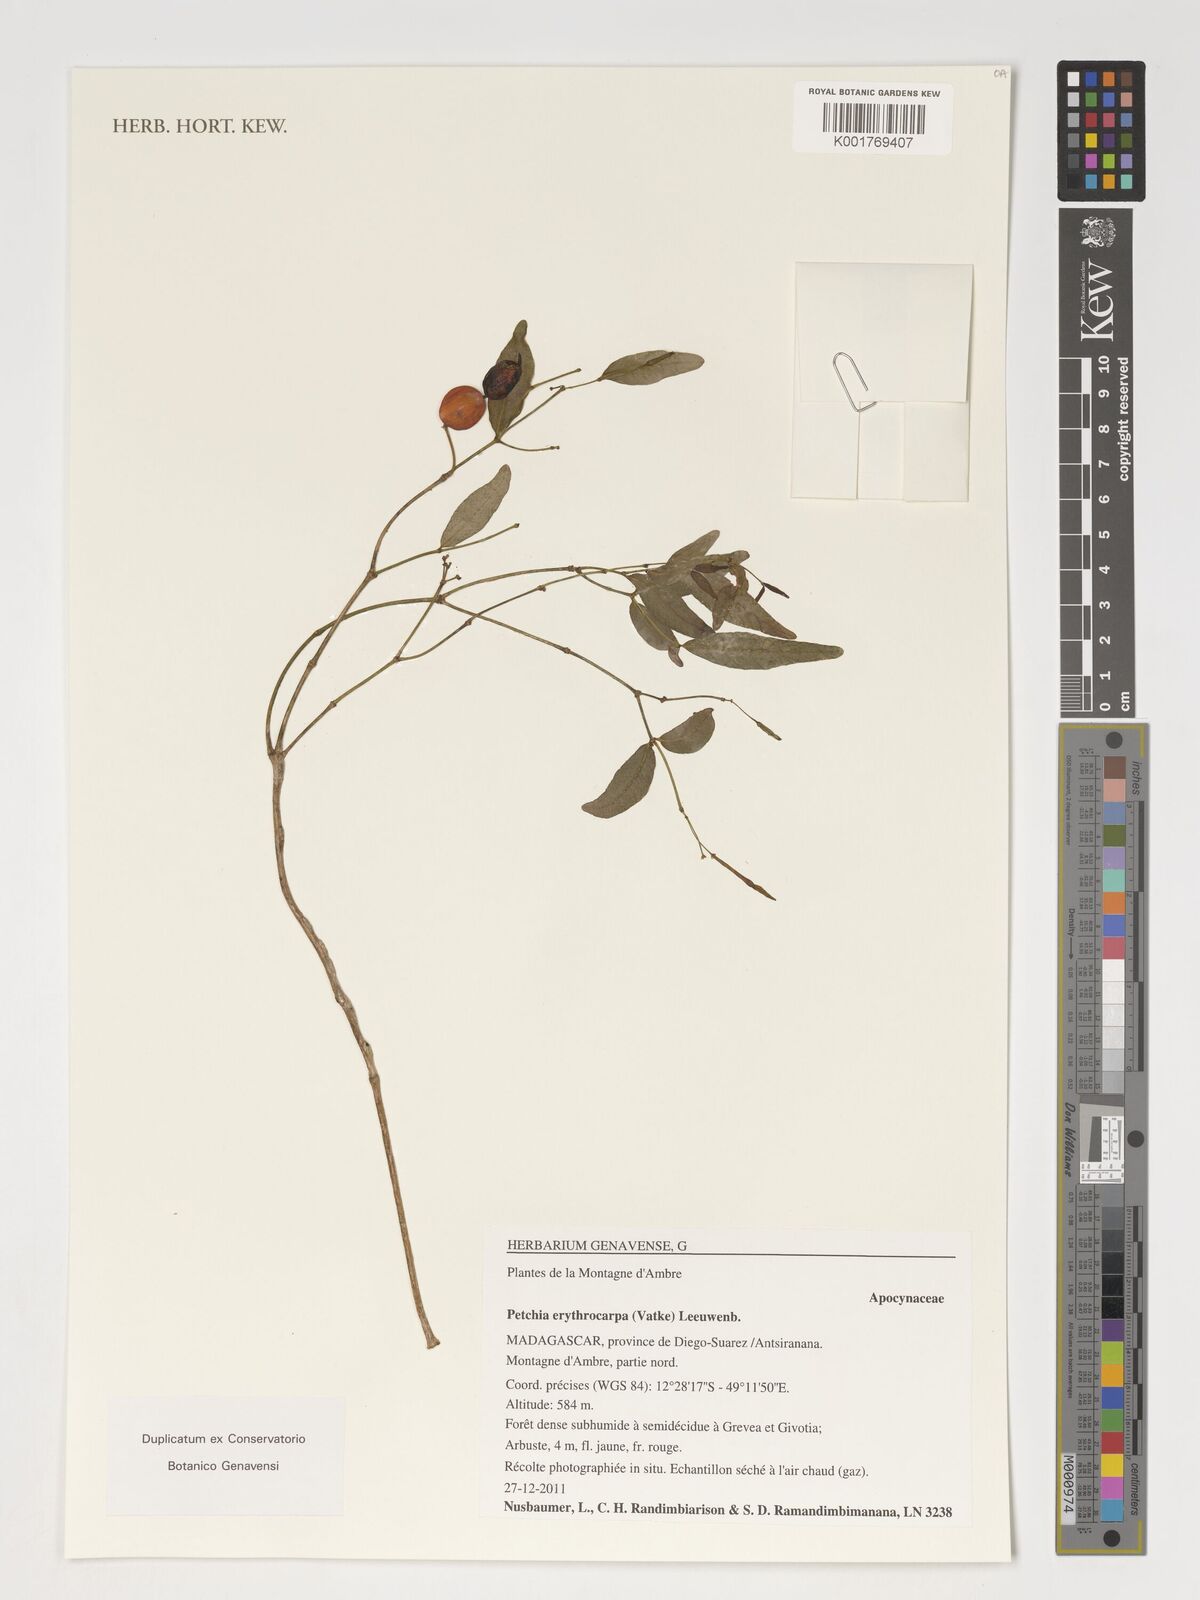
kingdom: Plantae
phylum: Tracheophyta
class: Magnoliopsida
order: Gentianales
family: Apocynaceae
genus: Petchia
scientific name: Petchia erythrocarpa
